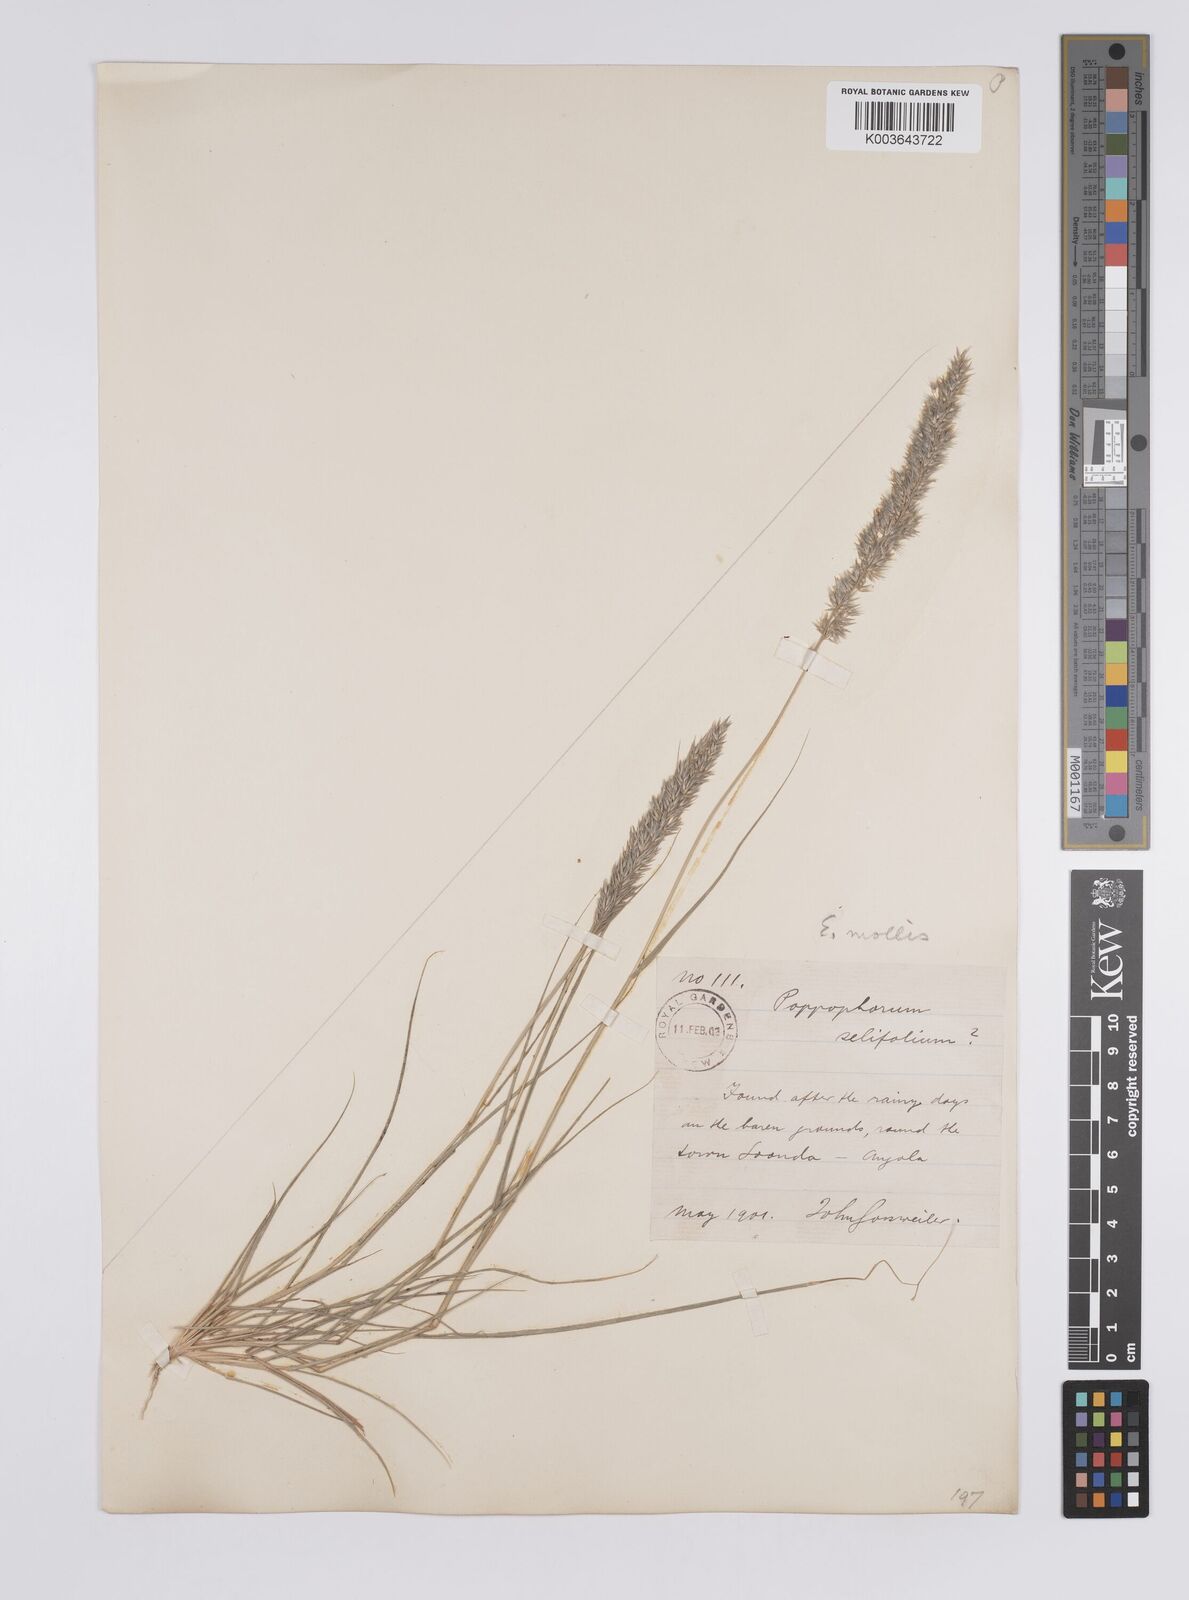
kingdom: Plantae
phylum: Tracheophyta
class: Liliopsida
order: Poales
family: Poaceae
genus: Enneapogon
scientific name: Enneapogon cenchroides
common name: Soft feather pappusgrass
